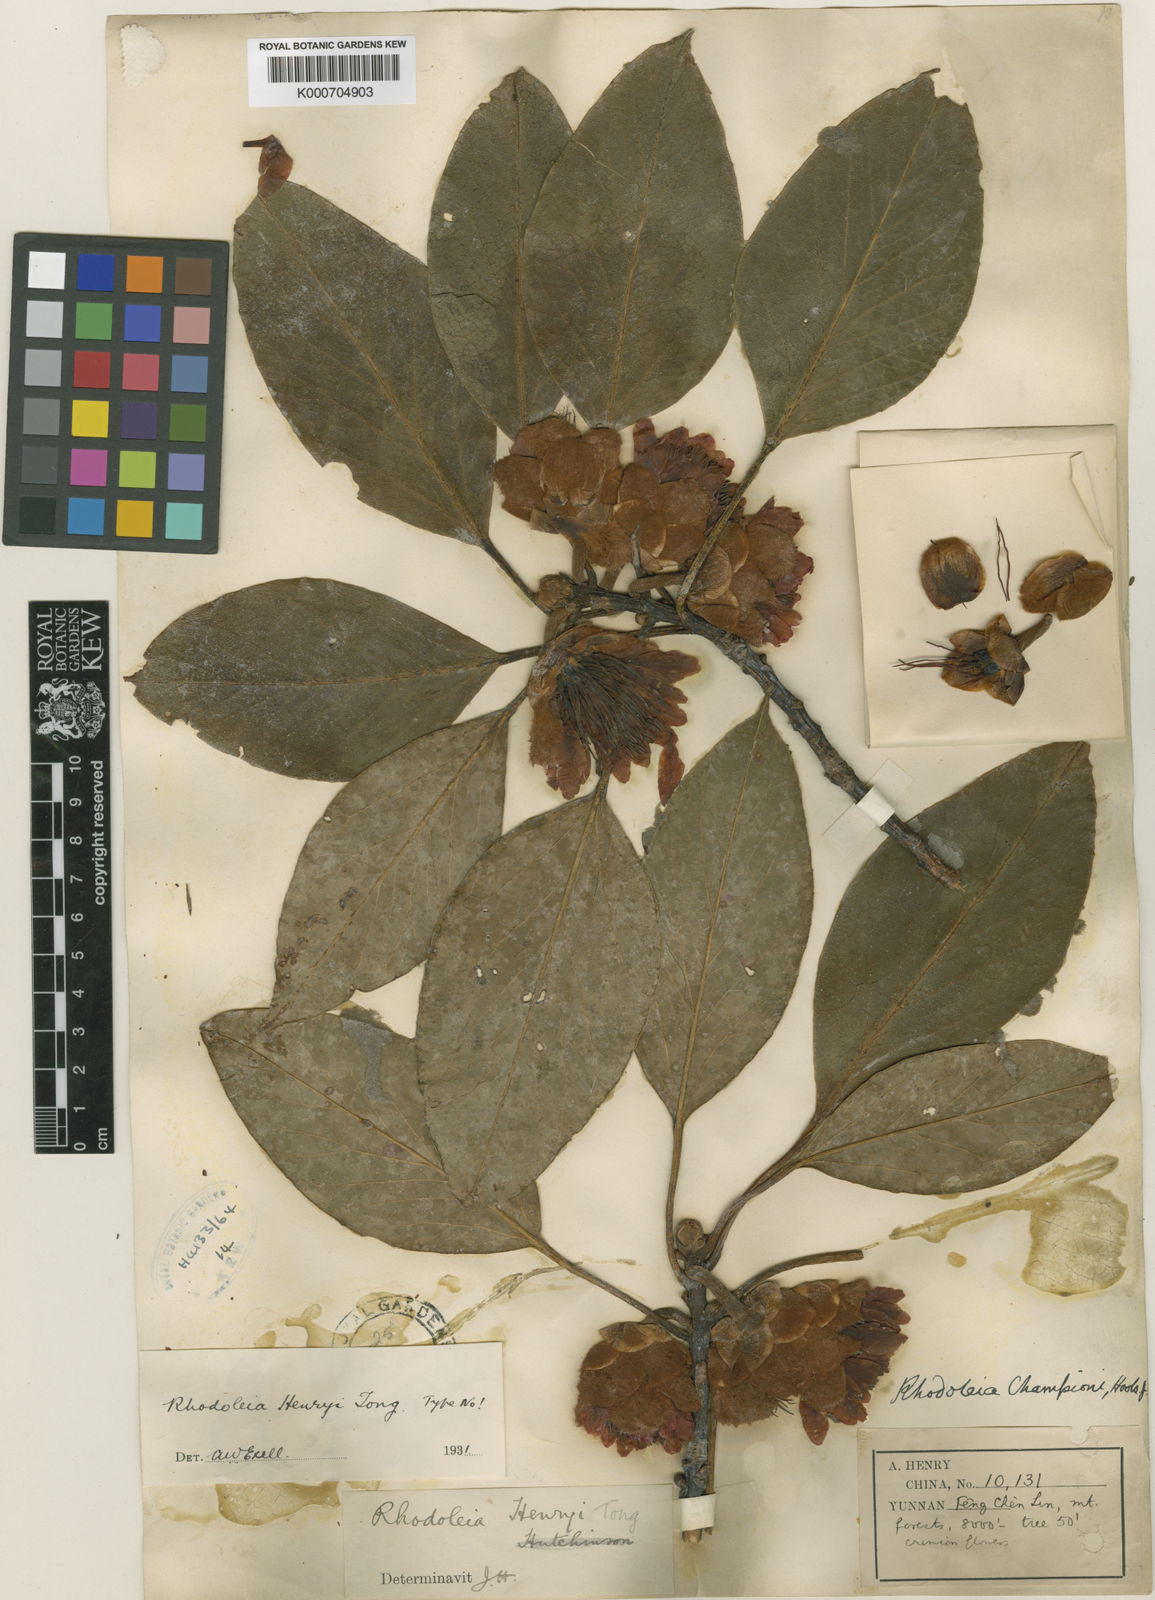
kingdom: Plantae
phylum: Tracheophyta
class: Magnoliopsida
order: Saxifragales
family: Hamamelidaceae
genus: Rhodoleia
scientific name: Rhodoleia henryi
